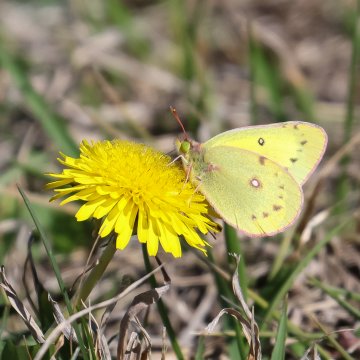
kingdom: Animalia
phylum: Arthropoda
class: Insecta
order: Lepidoptera
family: Pieridae
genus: Colias
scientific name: Colias philodice
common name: Clouded Sulphur
